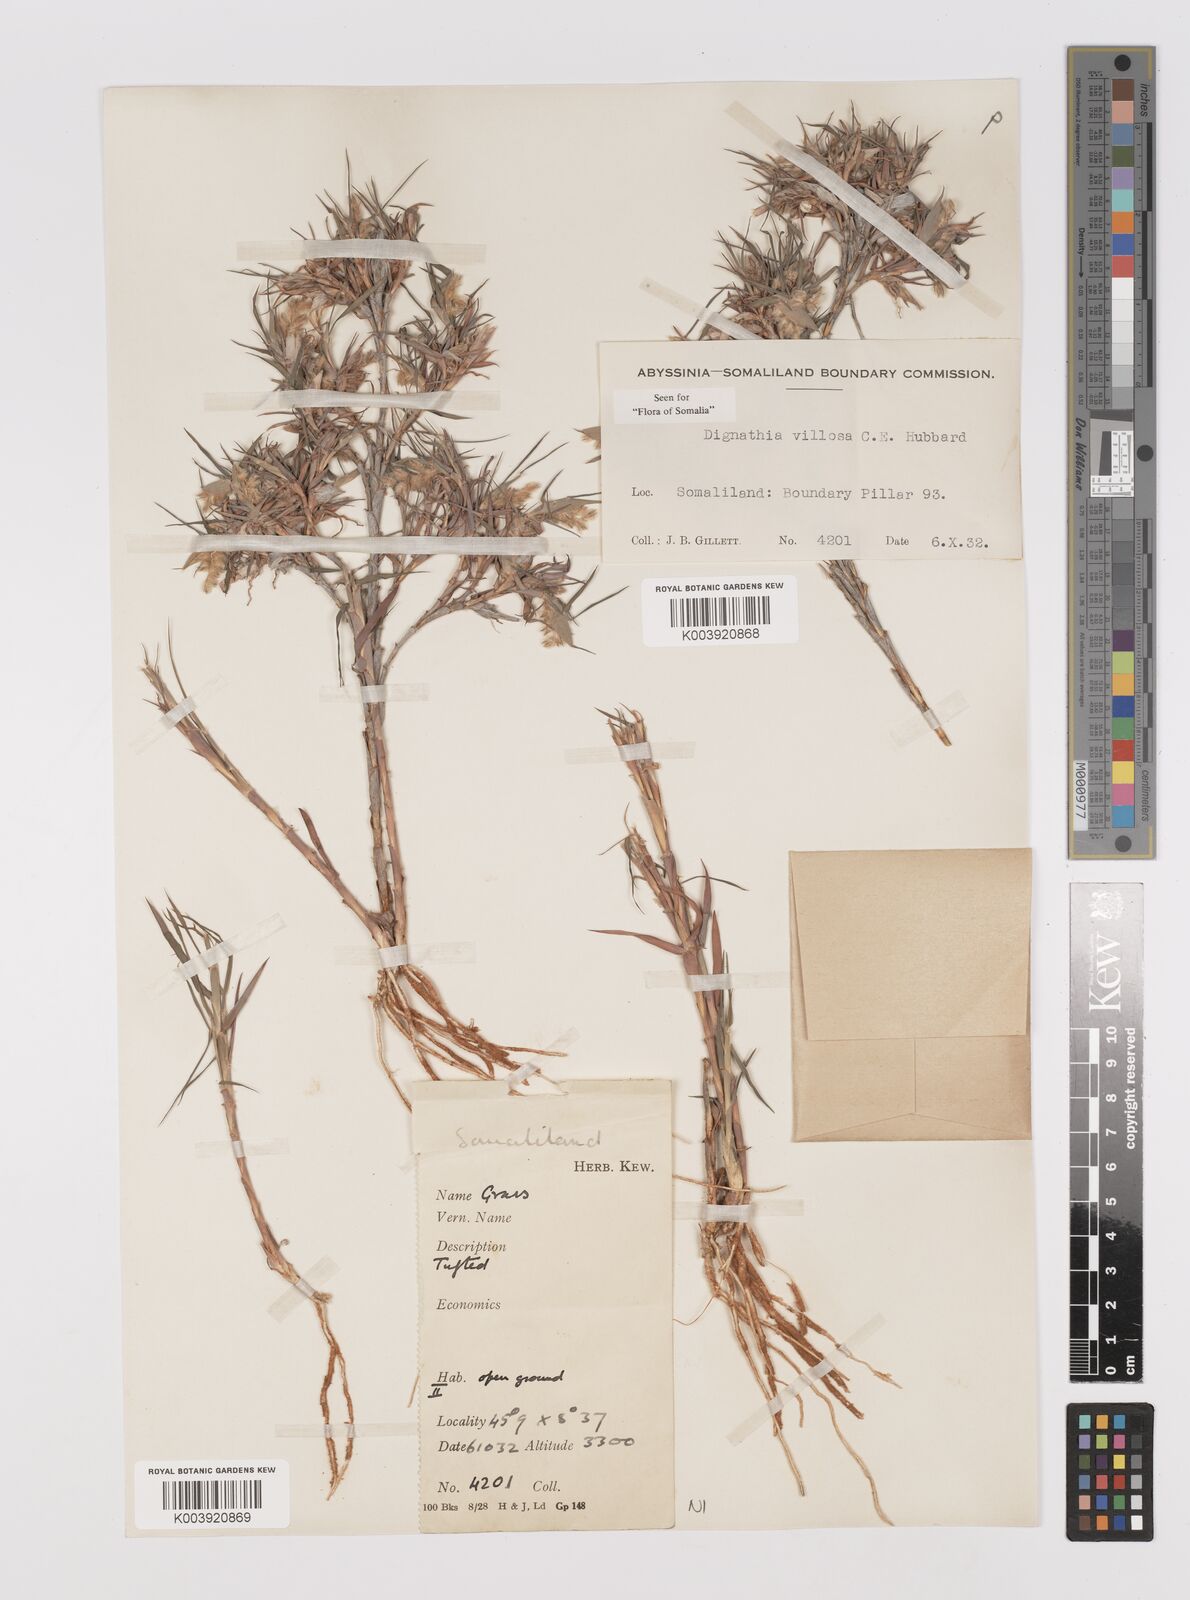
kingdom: Plantae
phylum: Tracheophyta
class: Liliopsida
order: Poales
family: Poaceae
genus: Dignathia
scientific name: Dignathia villosa
